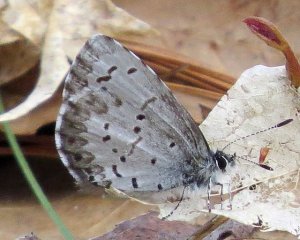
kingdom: Animalia
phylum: Arthropoda
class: Insecta
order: Lepidoptera
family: Lycaenidae
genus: Celastrina
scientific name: Celastrina ladon
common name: Spring Azure
